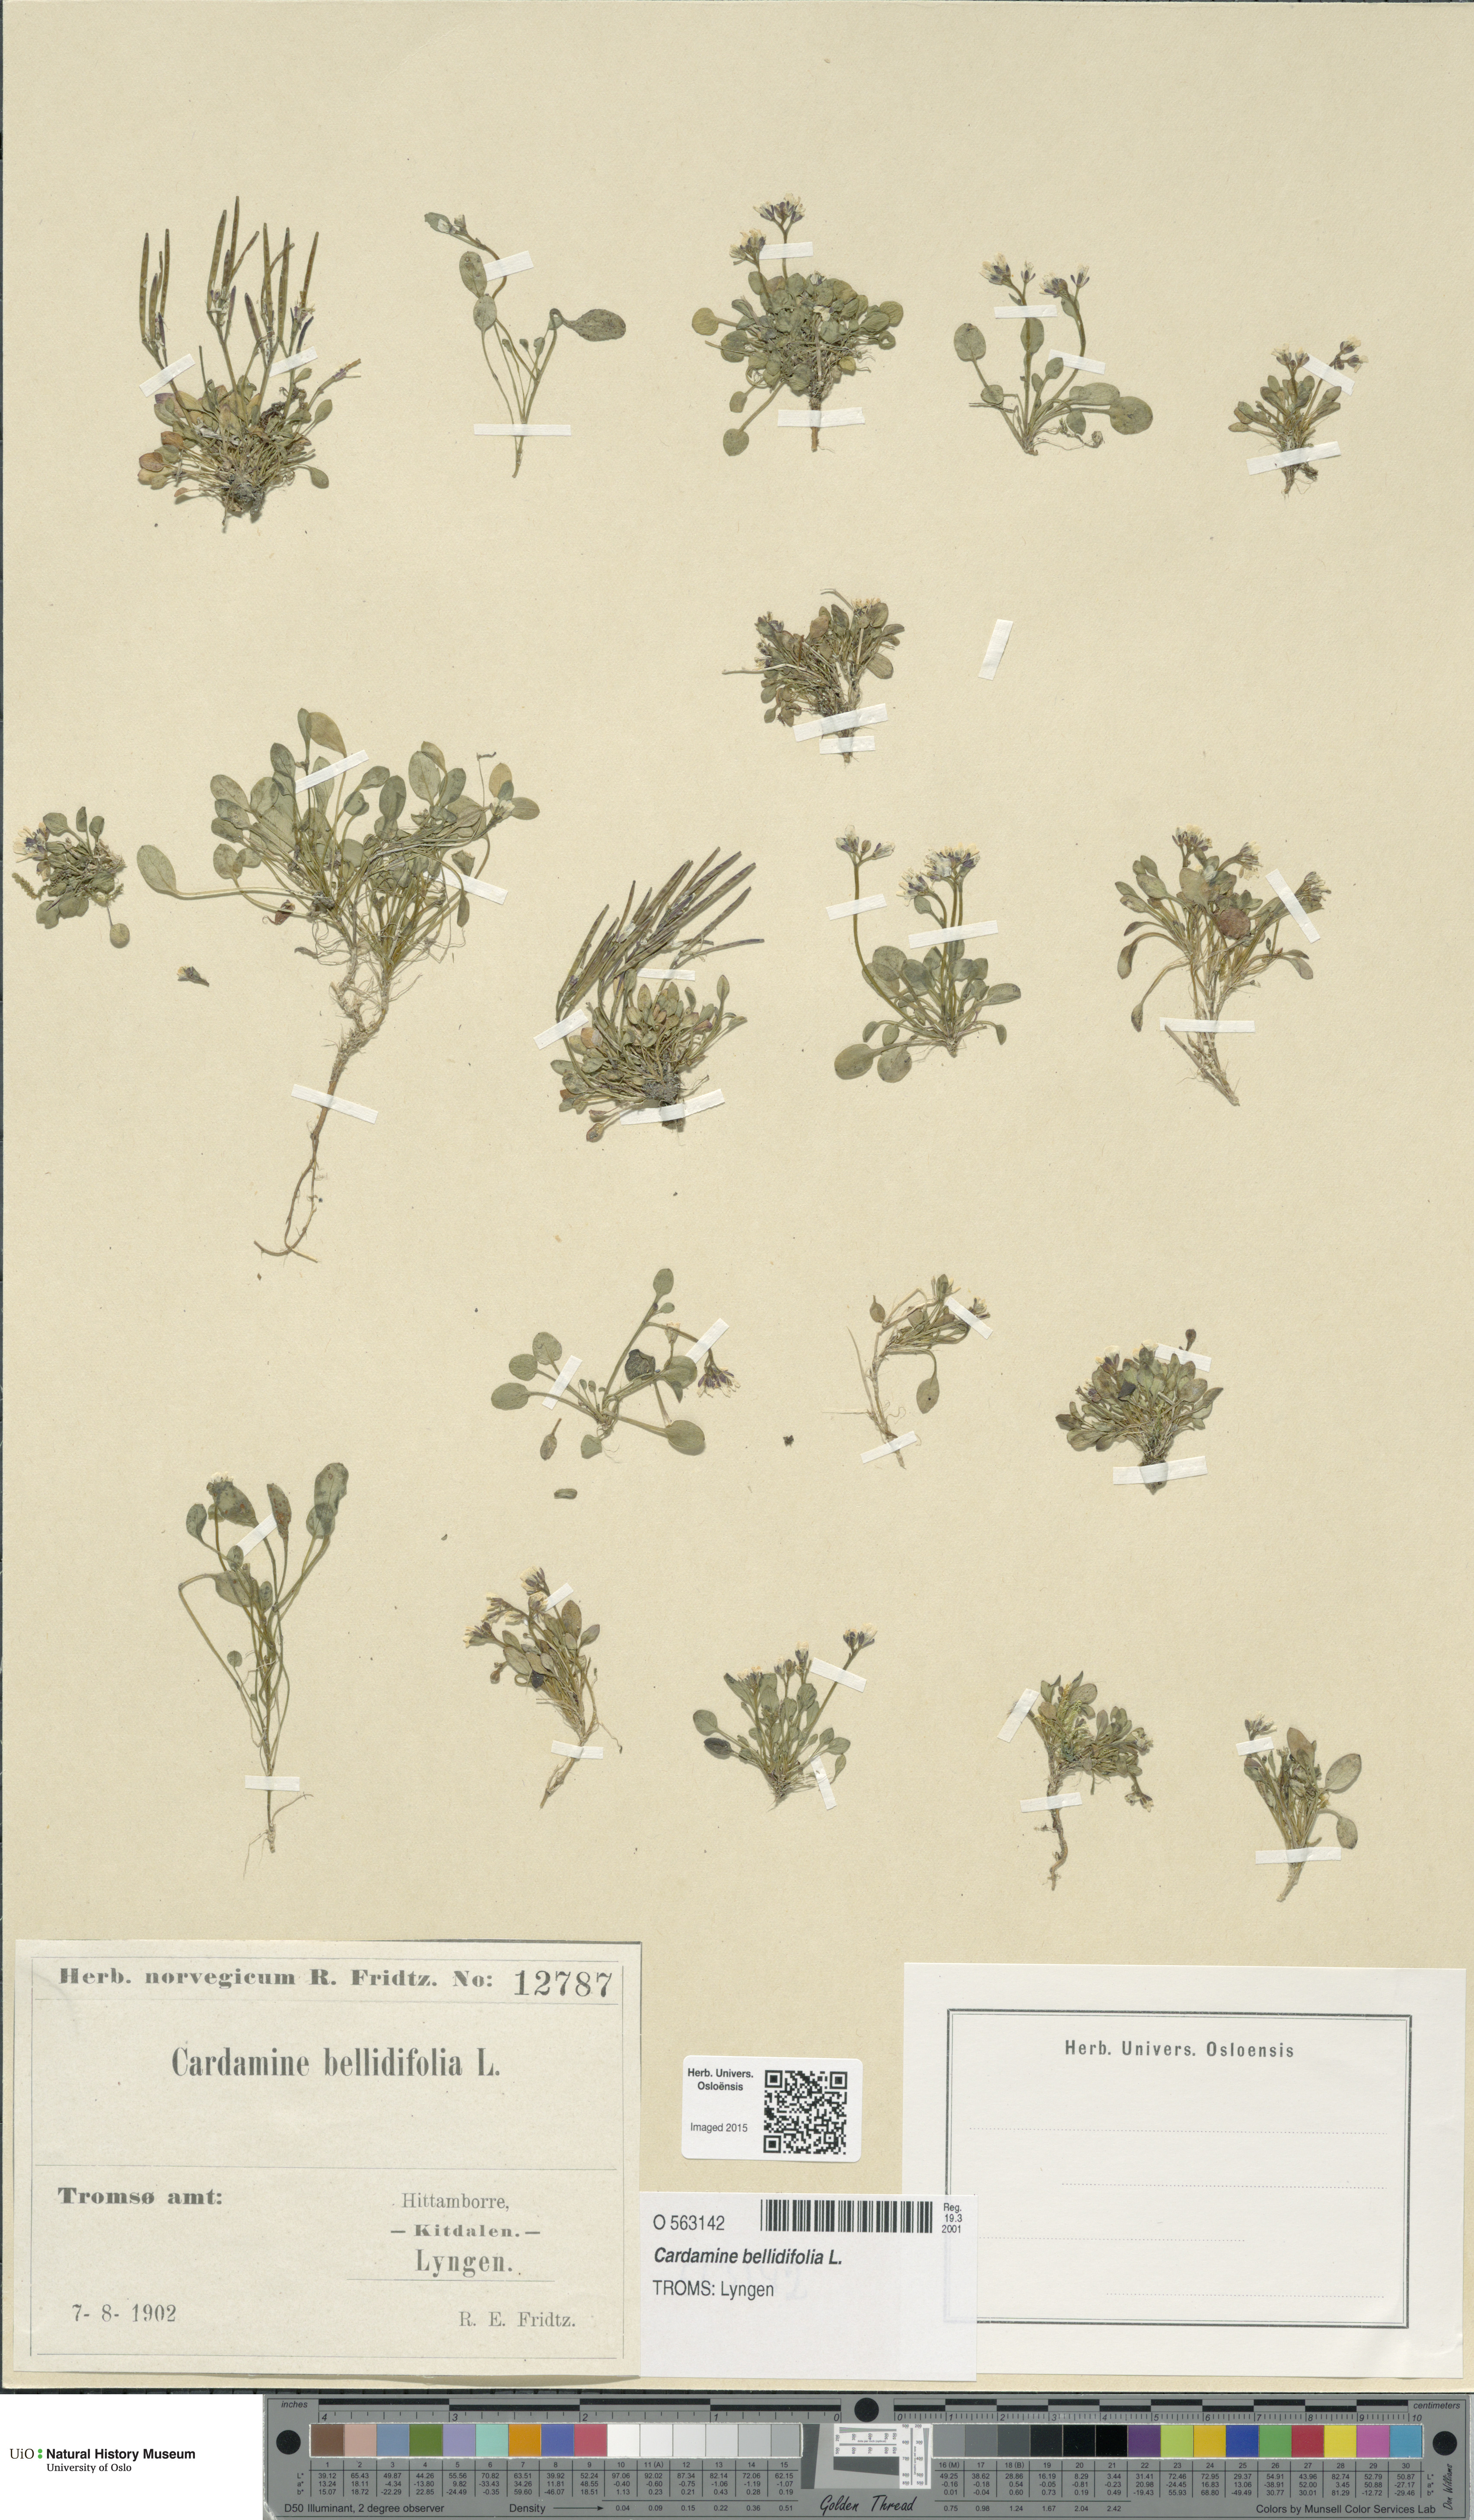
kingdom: Plantae
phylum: Tracheophyta
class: Magnoliopsida
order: Brassicales
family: Brassicaceae
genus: Cardamine
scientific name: Cardamine bellidifolia
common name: Alpine bittercress
